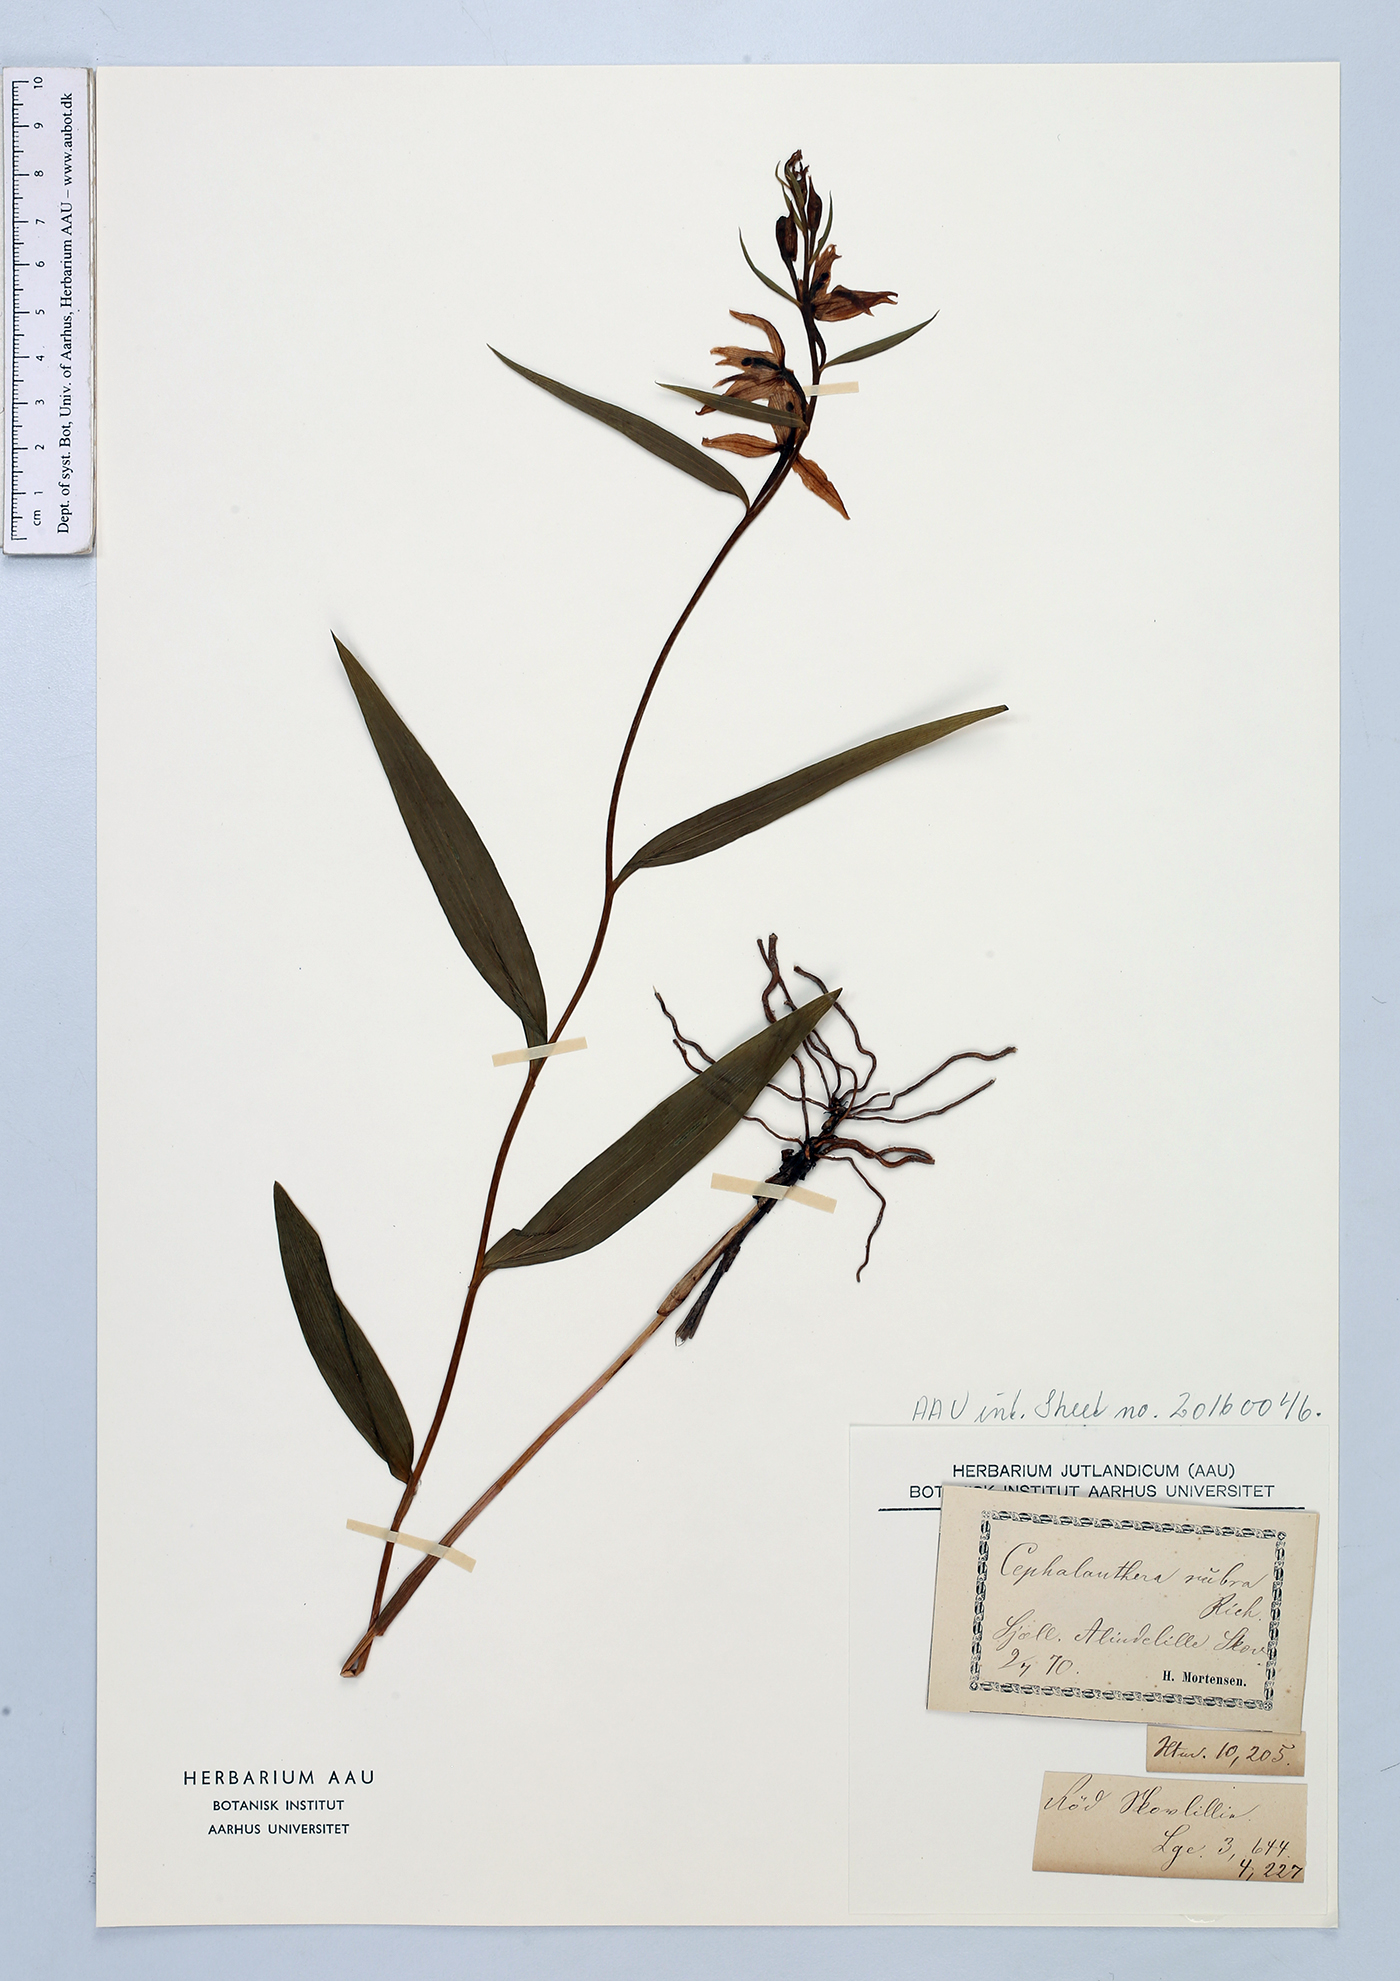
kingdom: Plantae
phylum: Tracheophyta
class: Liliopsida
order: Asparagales
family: Orchidaceae
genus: Cephalanthera
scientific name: Cephalanthera rubra
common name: Red helleborine
